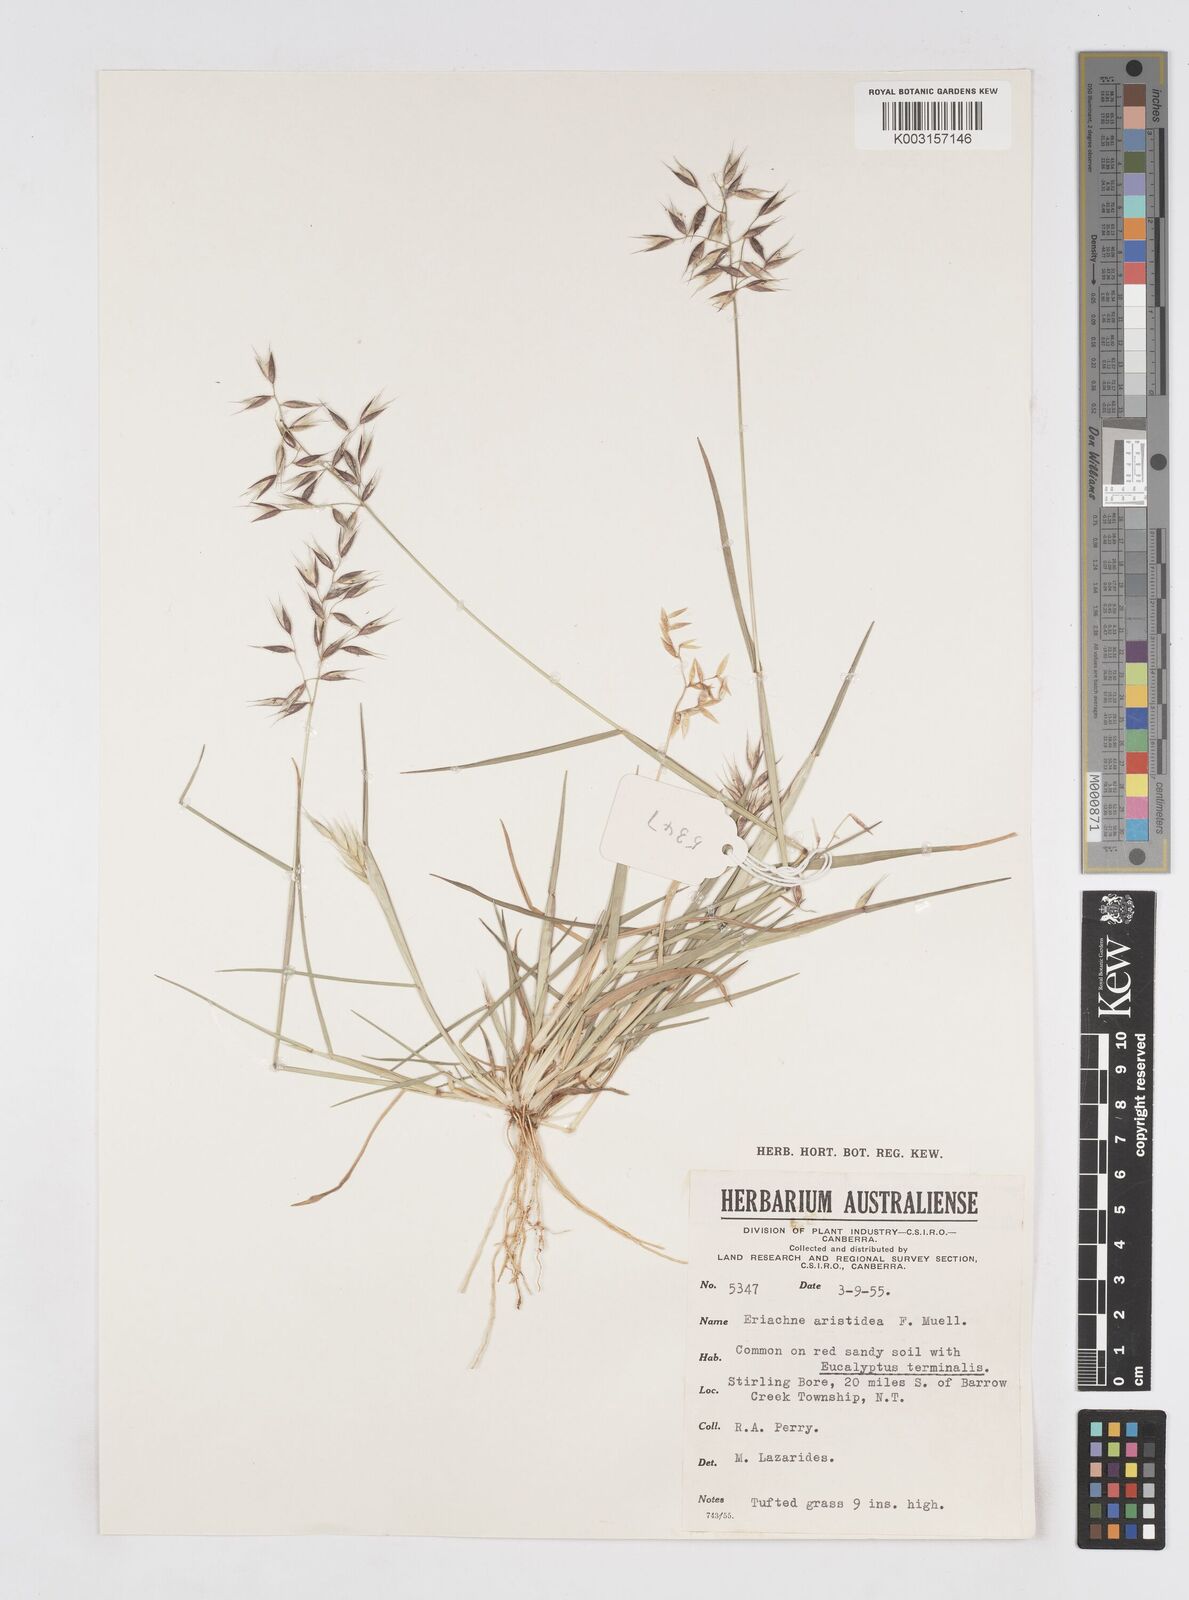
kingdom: Plantae
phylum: Tracheophyta
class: Liliopsida
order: Poales
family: Poaceae
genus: Eriachne
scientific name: Eriachne aristidea
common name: Three-awn wanderrie grass
